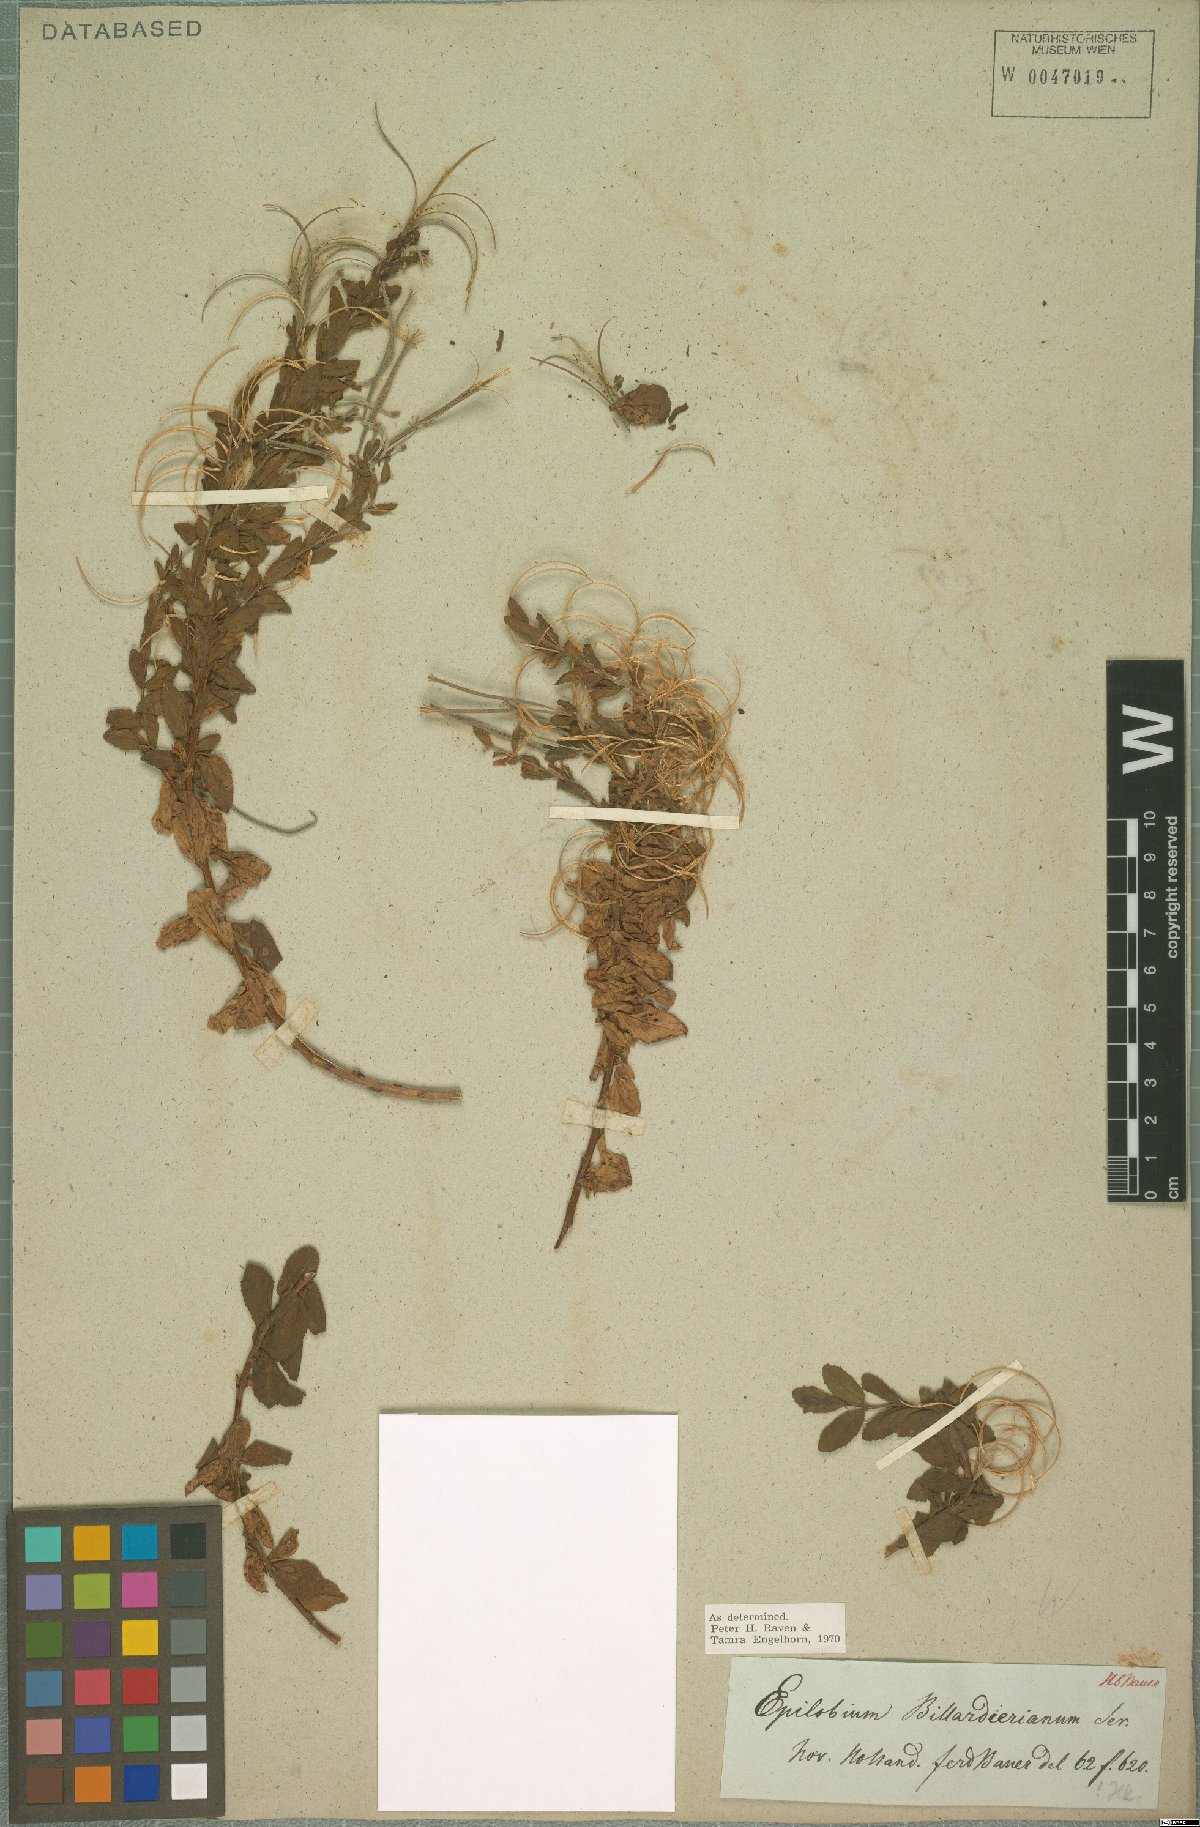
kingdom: Plantae
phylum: Tracheophyta
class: Magnoliopsida
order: Myrtales
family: Onagraceae
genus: Epilobium
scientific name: Epilobium billardierianum
